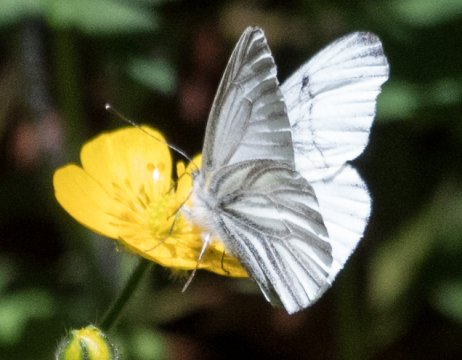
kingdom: Animalia
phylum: Arthropoda
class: Insecta
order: Lepidoptera
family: Pieridae
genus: Pieris
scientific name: Pieris marginalis
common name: Margined White
